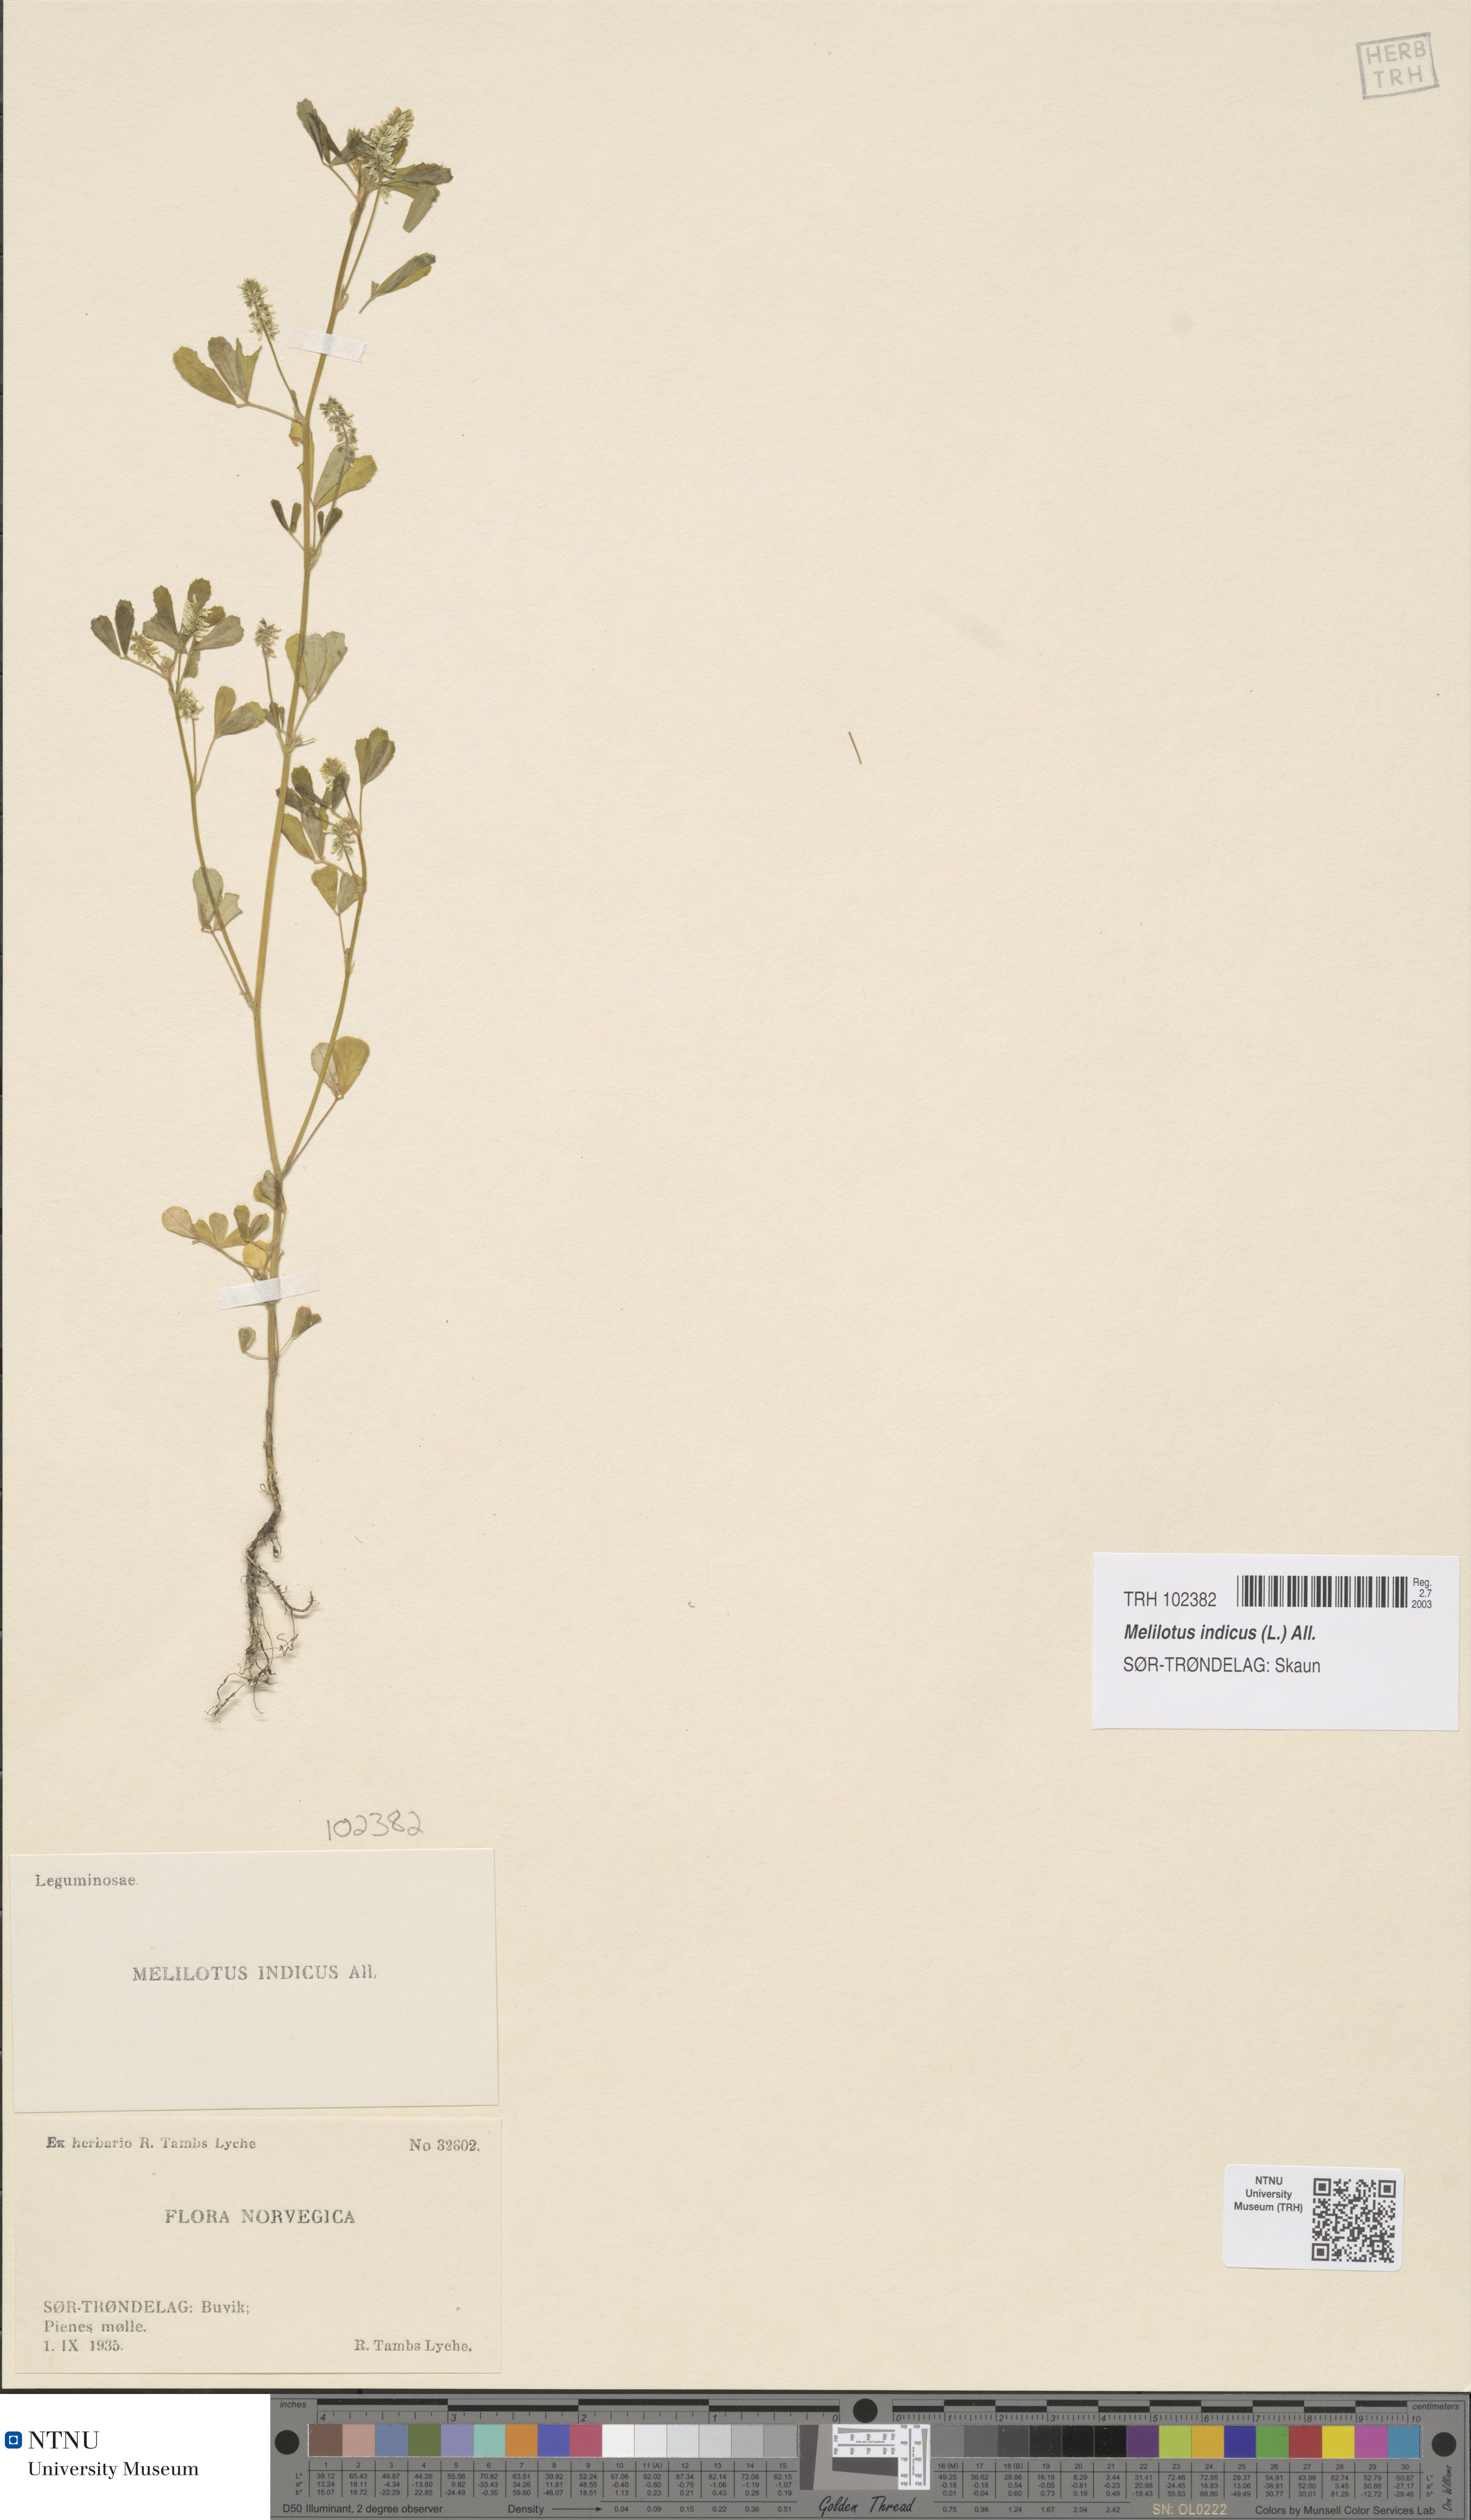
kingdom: Plantae
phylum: Tracheophyta
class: Magnoliopsida
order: Fabales
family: Fabaceae
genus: Melilotus
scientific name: Melilotus indicus
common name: Small melilot
